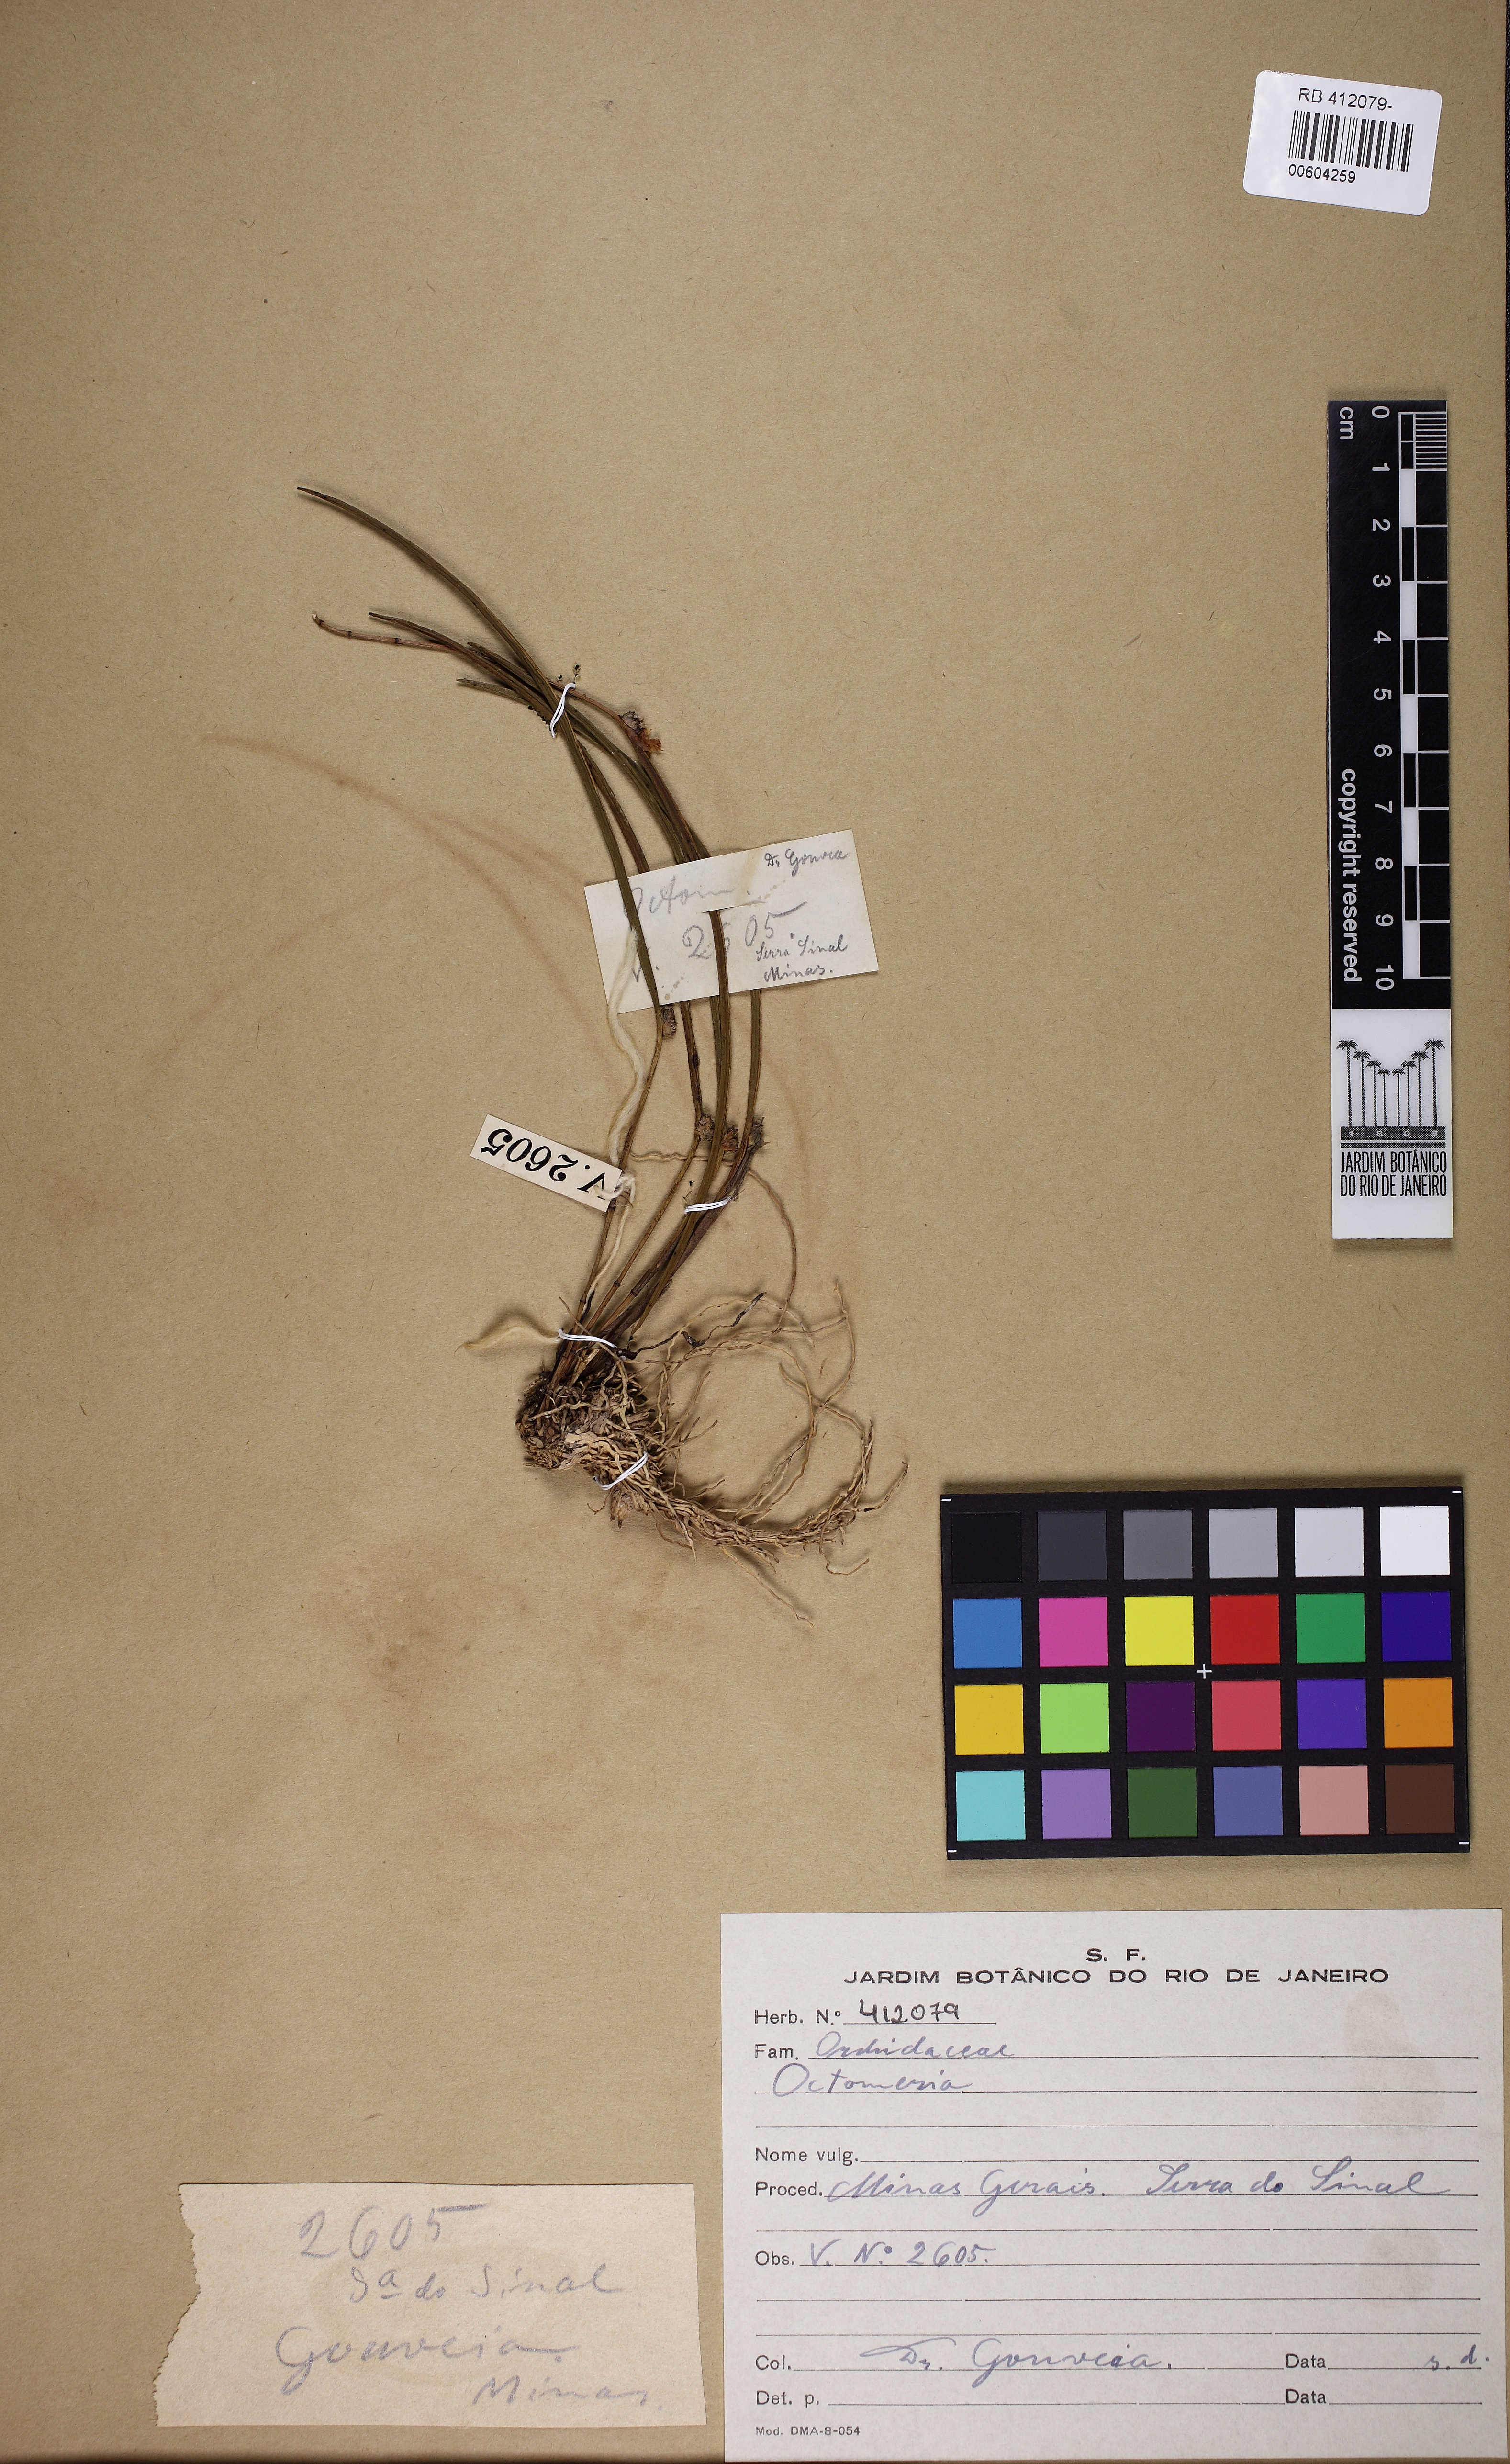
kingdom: Plantae
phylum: Tracheophyta
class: Liliopsida
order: Asparagales
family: Orchidaceae
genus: Octomeria
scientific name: Octomeria
